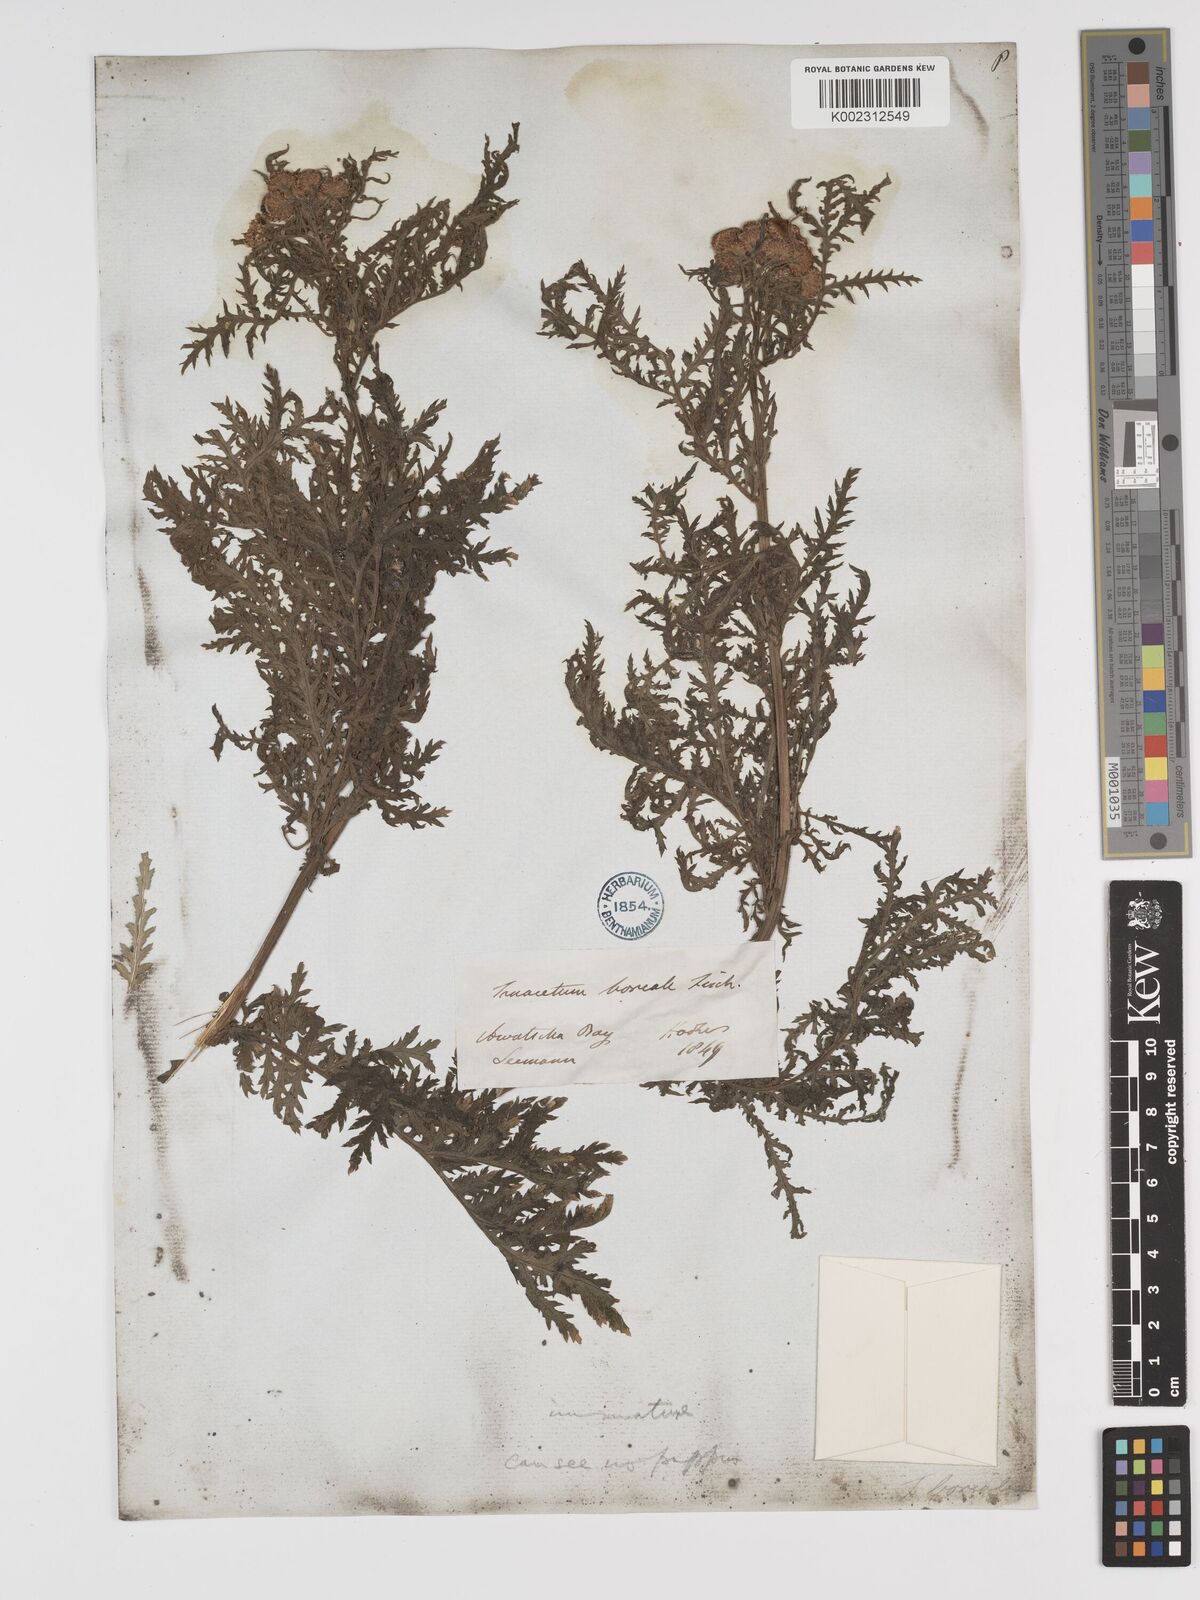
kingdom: Plantae
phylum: Tracheophyta
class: Magnoliopsida
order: Asterales
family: Asteraceae
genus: Tanacetum
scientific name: Tanacetum vulgare
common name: Common tansy
